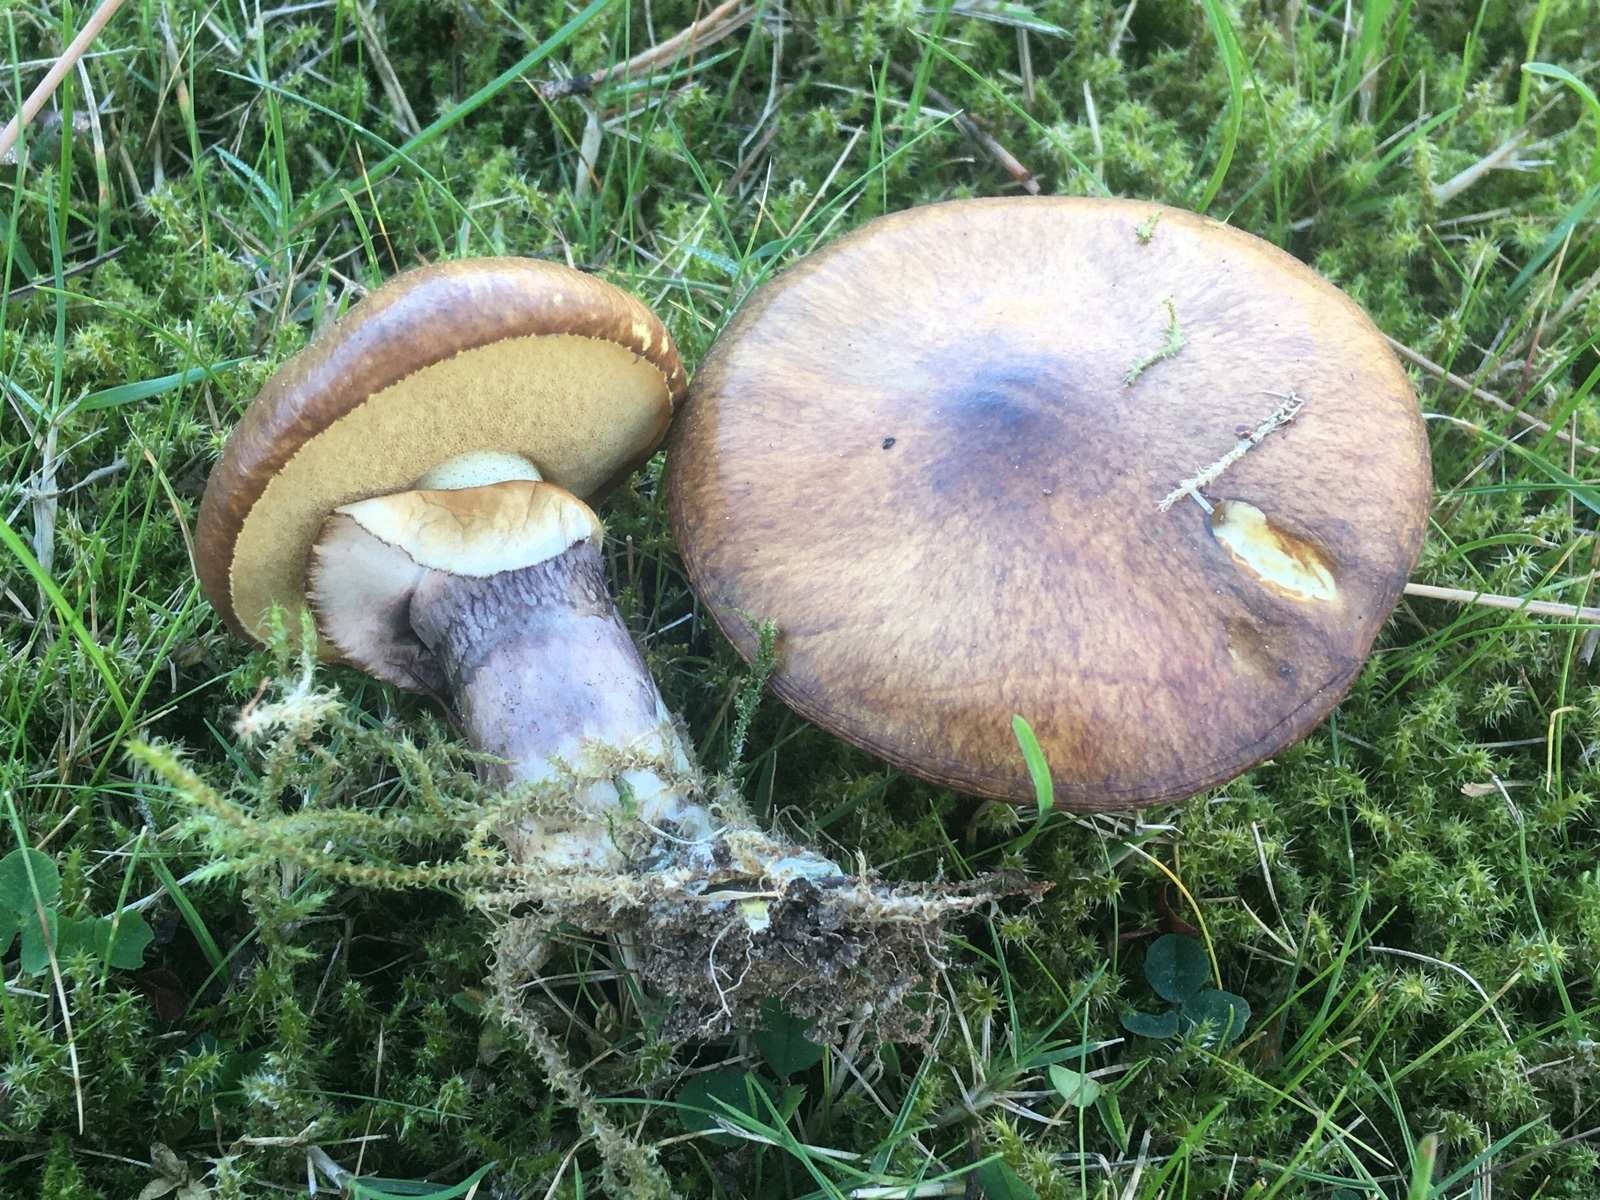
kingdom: Fungi
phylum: Basidiomycota
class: Agaricomycetes
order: Boletales
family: Suillaceae
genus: Suillus
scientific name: Suillus luteus
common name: brungul slimrørhat
